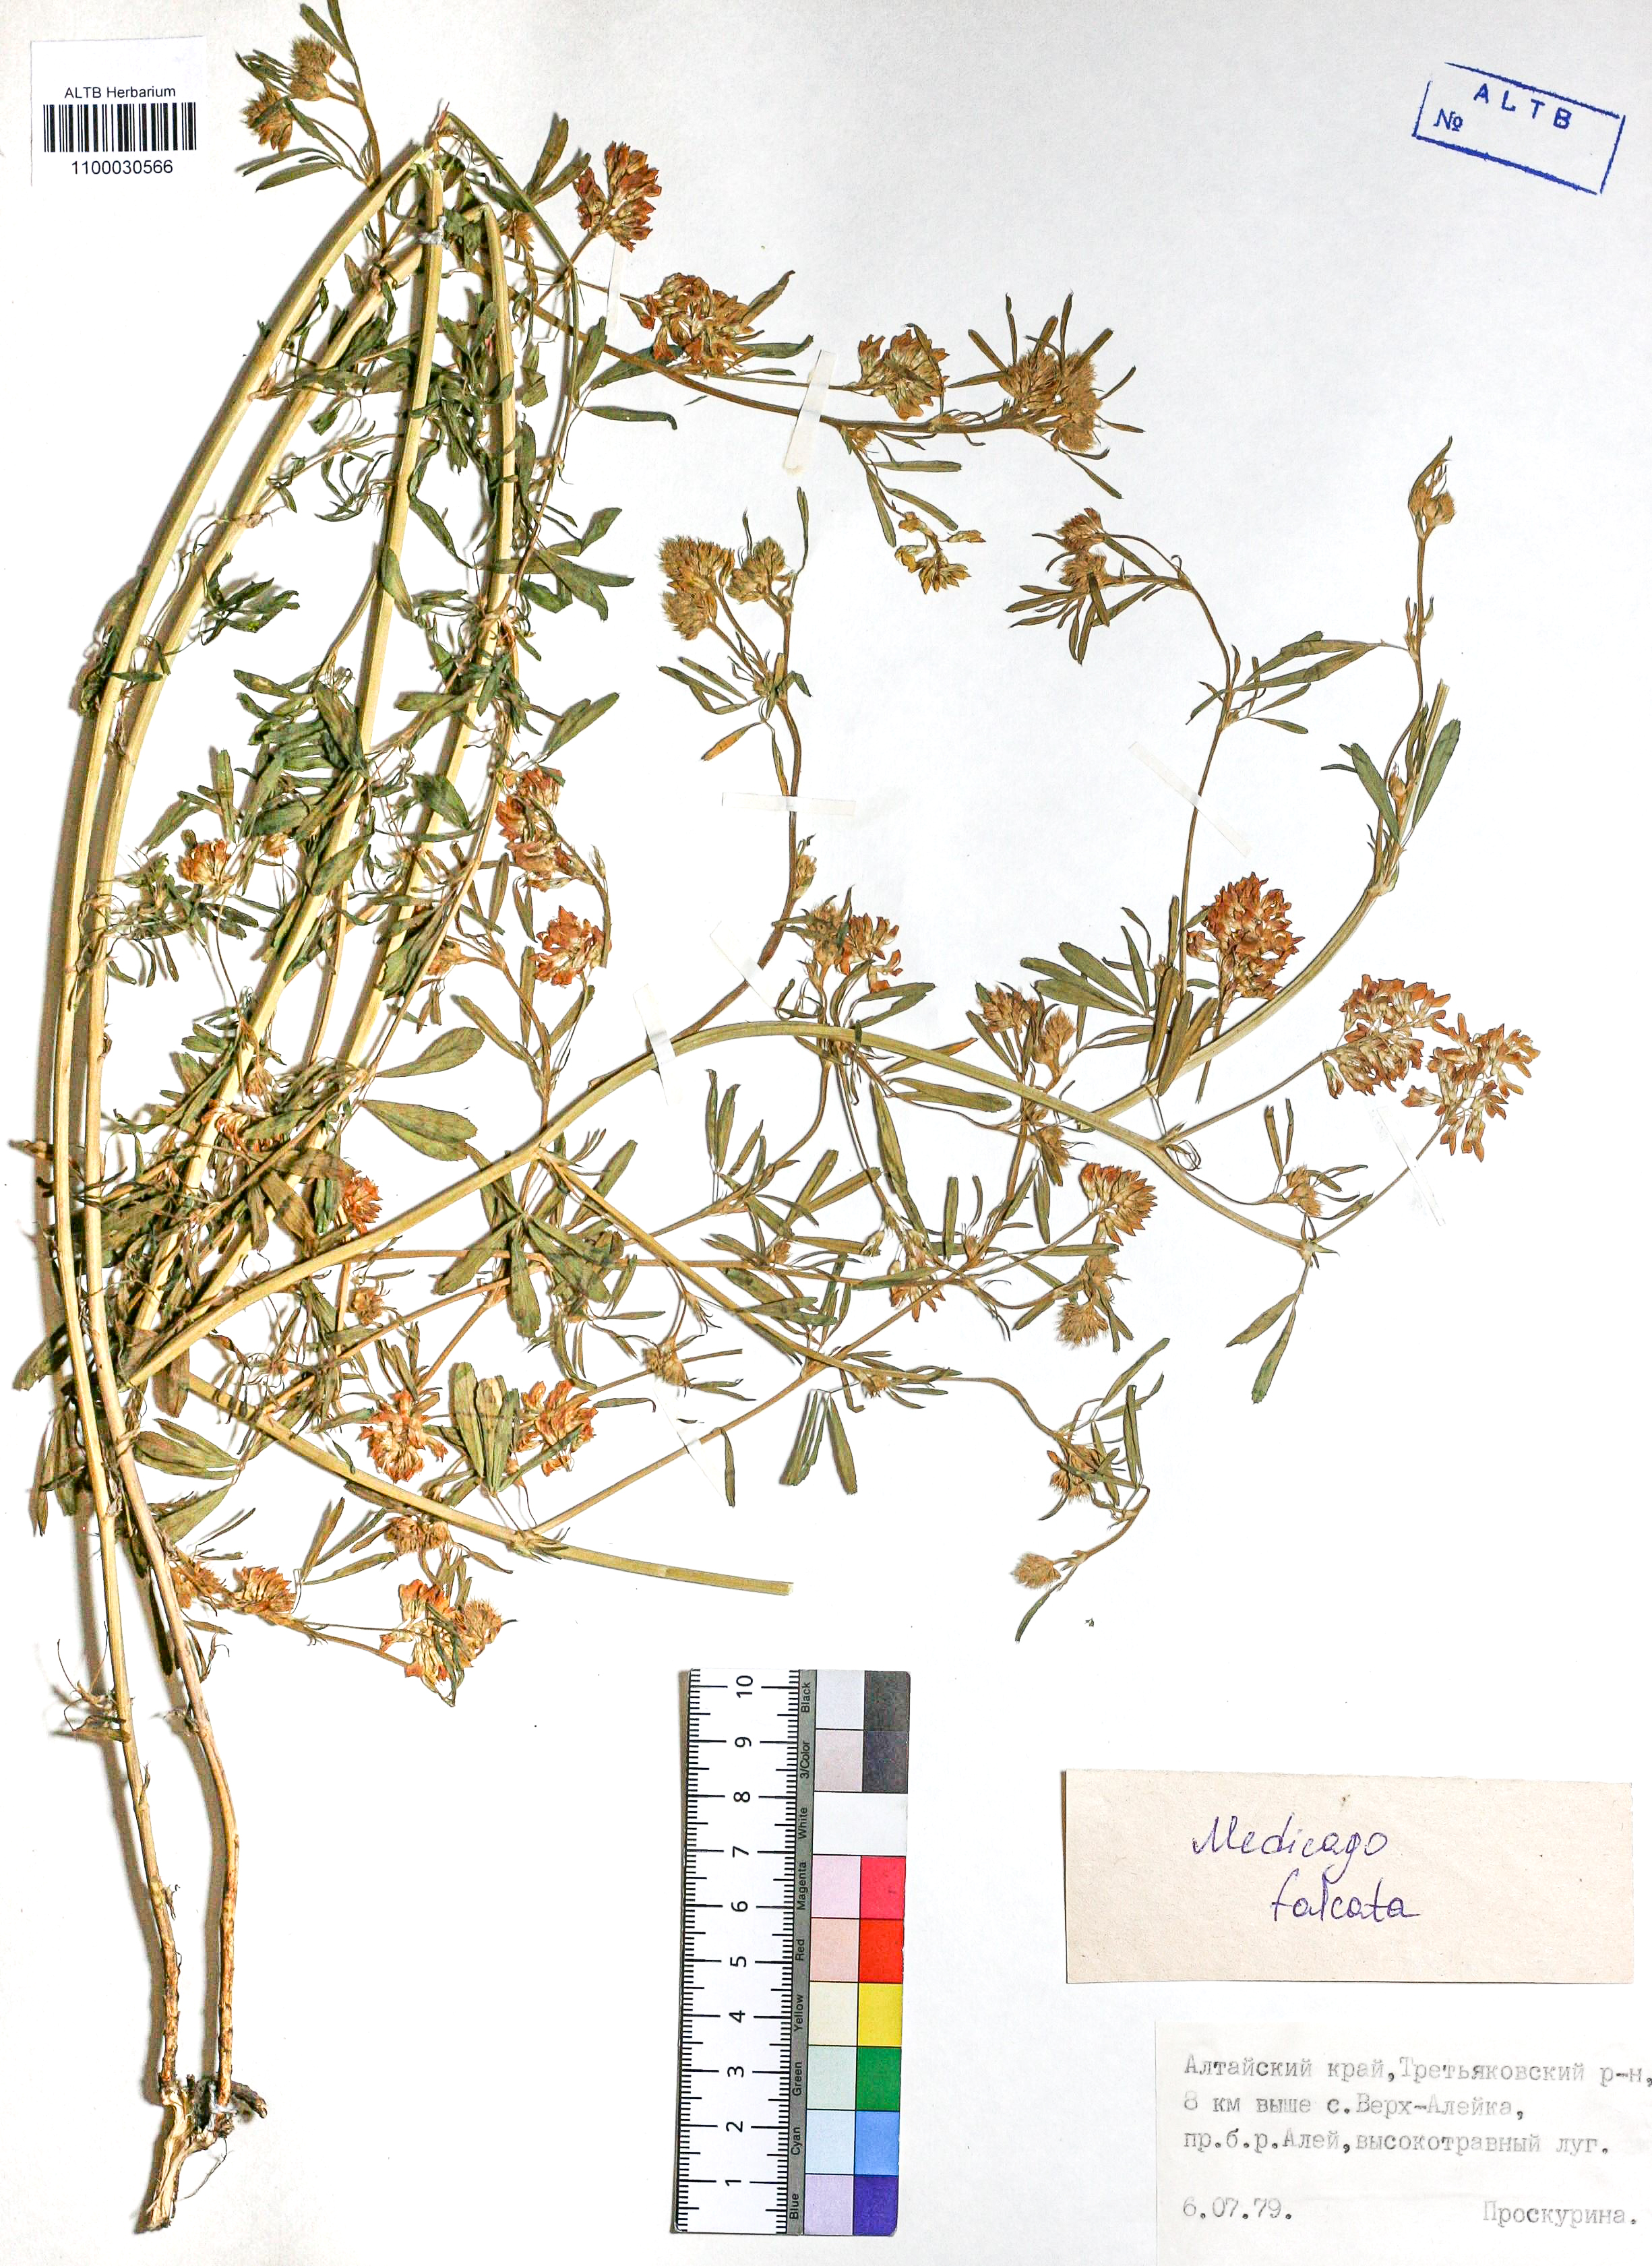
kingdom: Plantae
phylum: Tracheophyta
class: Magnoliopsida
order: Fabales
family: Fabaceae
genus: Medicago
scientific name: Medicago falcata
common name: Sickle medick
